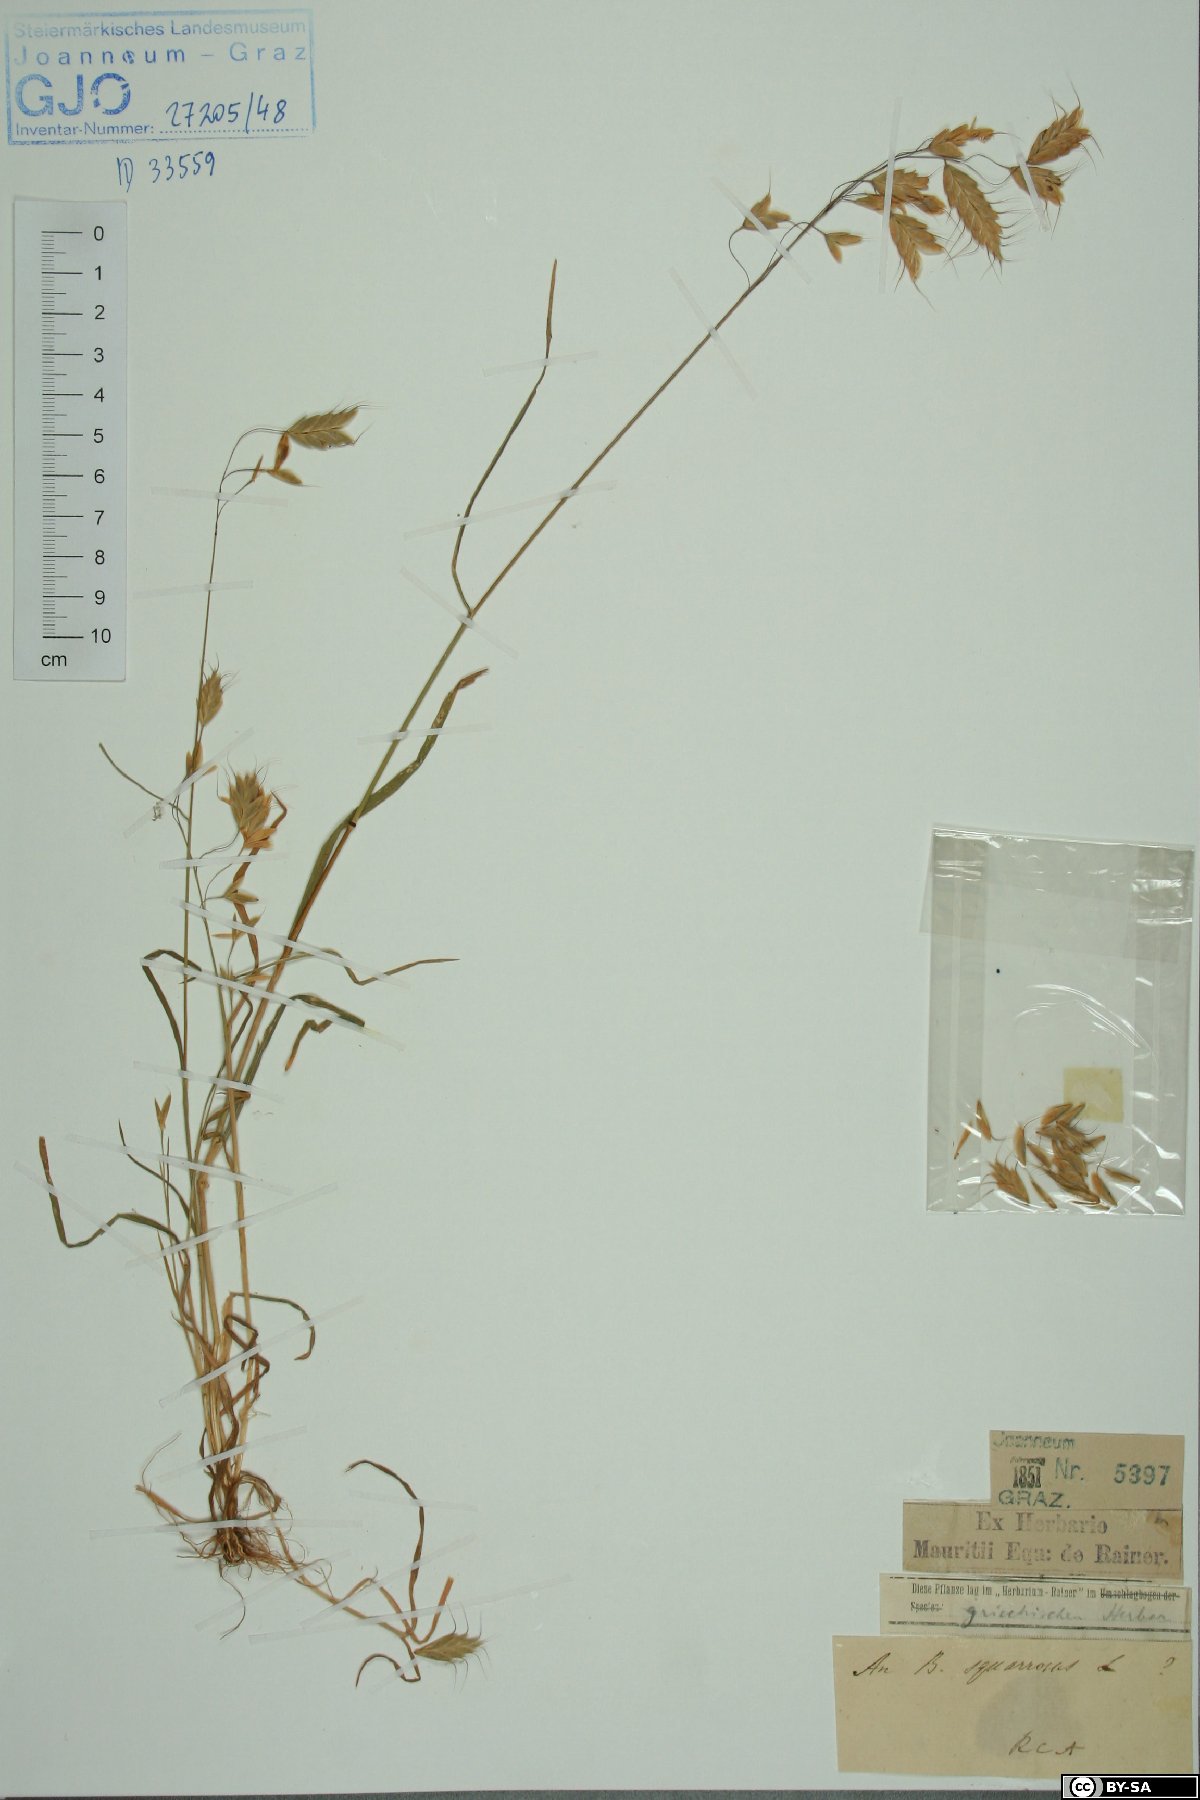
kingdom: Plantae
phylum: Tracheophyta
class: Liliopsida
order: Poales
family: Poaceae
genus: Bromus
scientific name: Bromus squarrosus
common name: Corn brome
